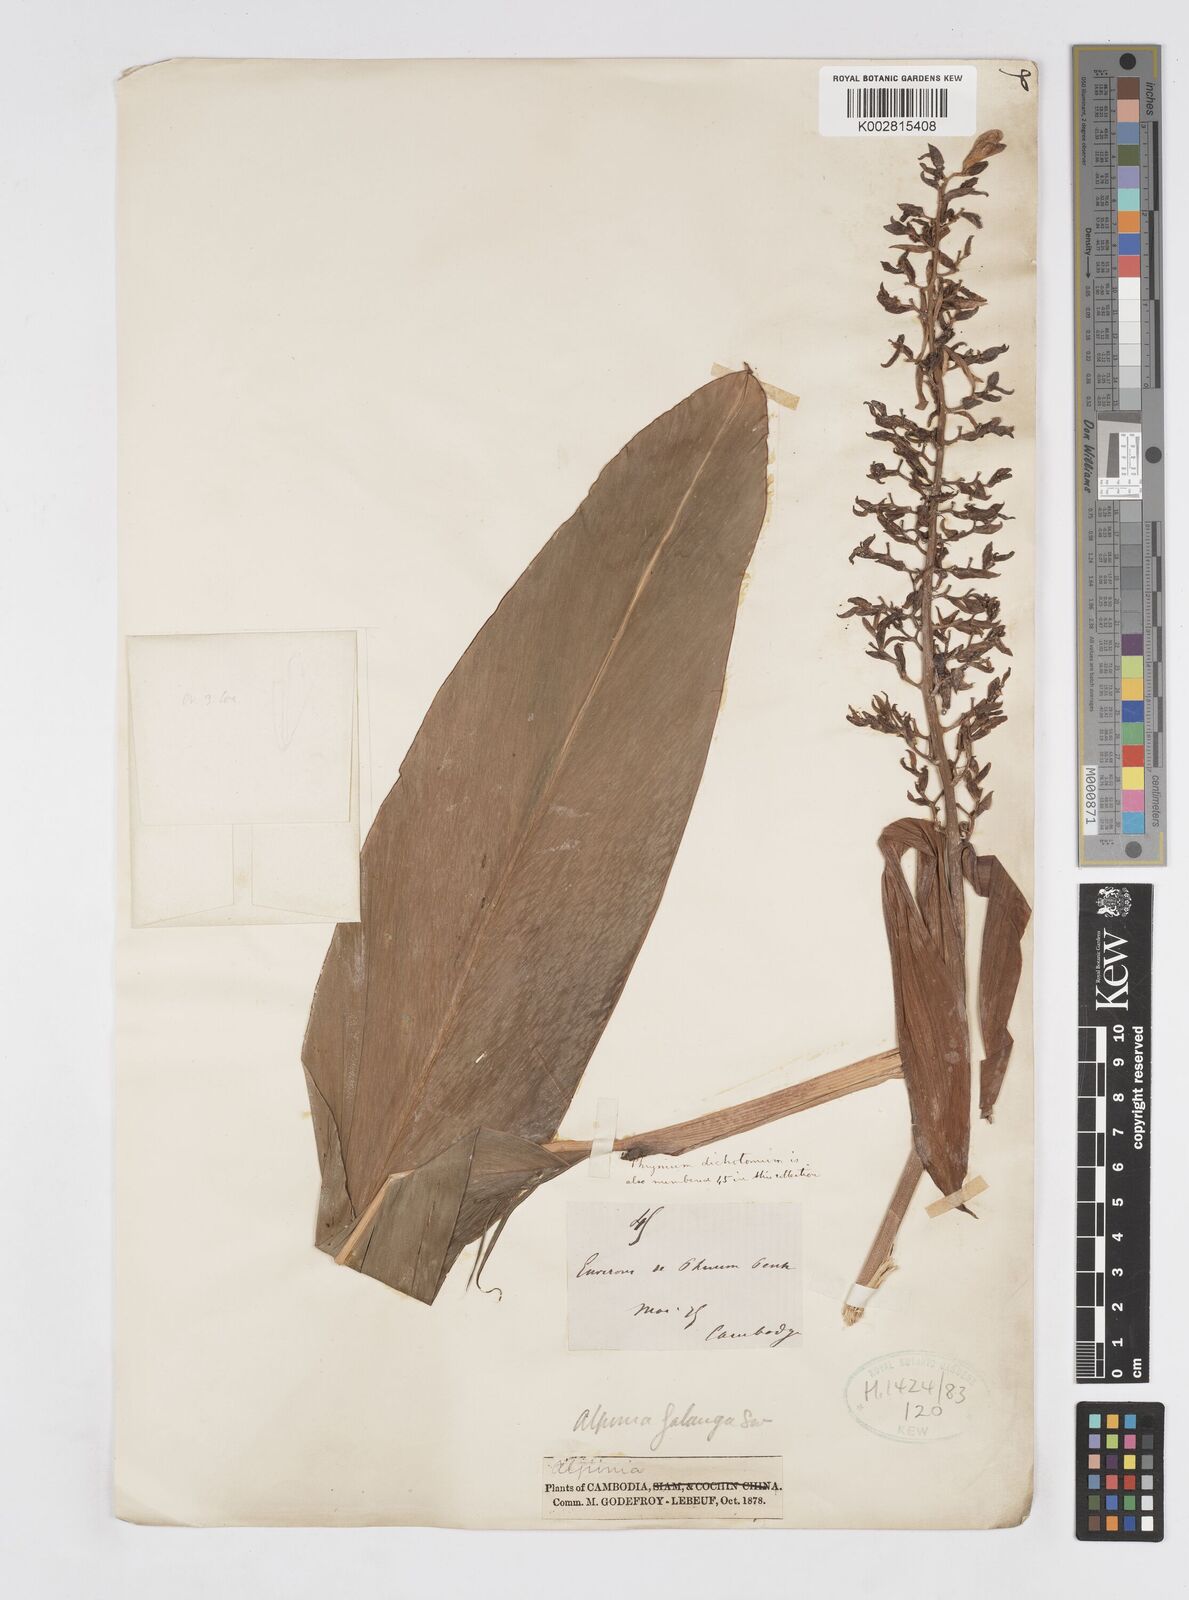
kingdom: Plantae
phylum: Tracheophyta
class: Liliopsida
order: Zingiberales
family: Zingiberaceae
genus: Alpinia
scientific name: Alpinia galanga
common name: Siamese-ginger
